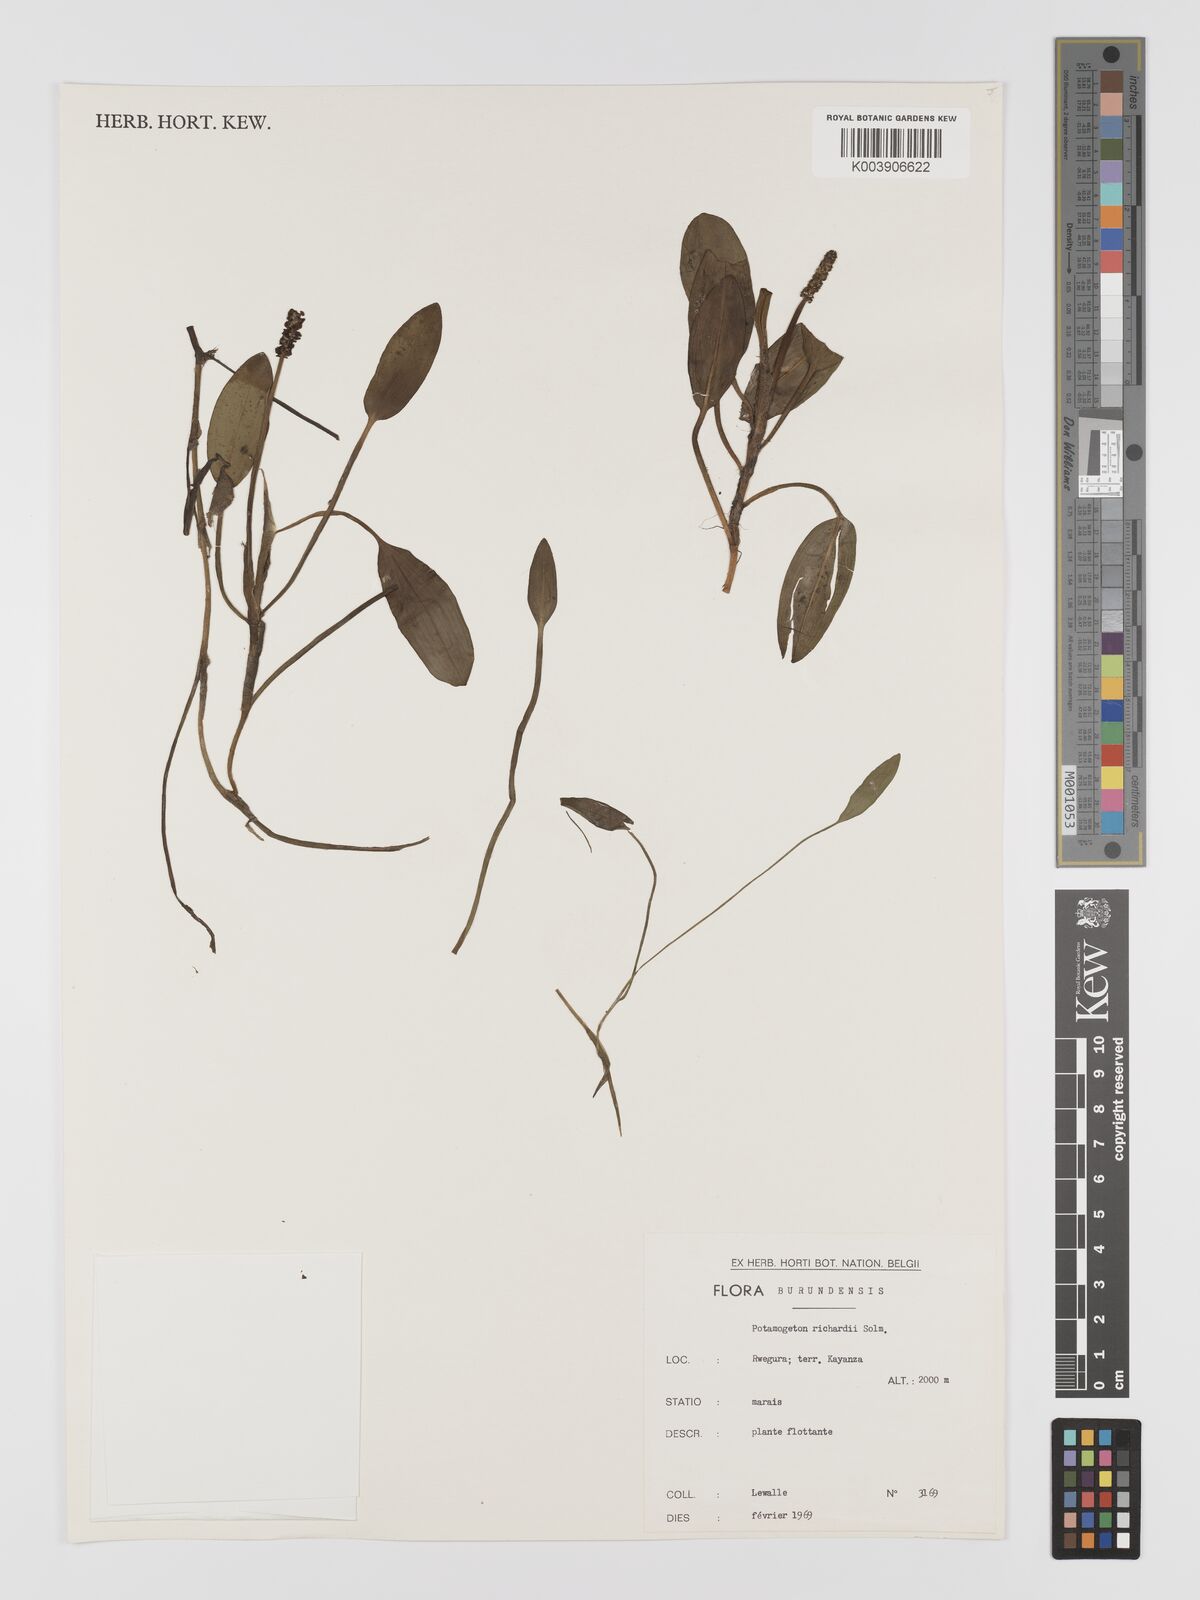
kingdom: Plantae
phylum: Tracheophyta
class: Liliopsida
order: Alismatales
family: Potamogetonaceae
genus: Potamogeton
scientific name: Potamogeton nodosus
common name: Loddon pondweed
